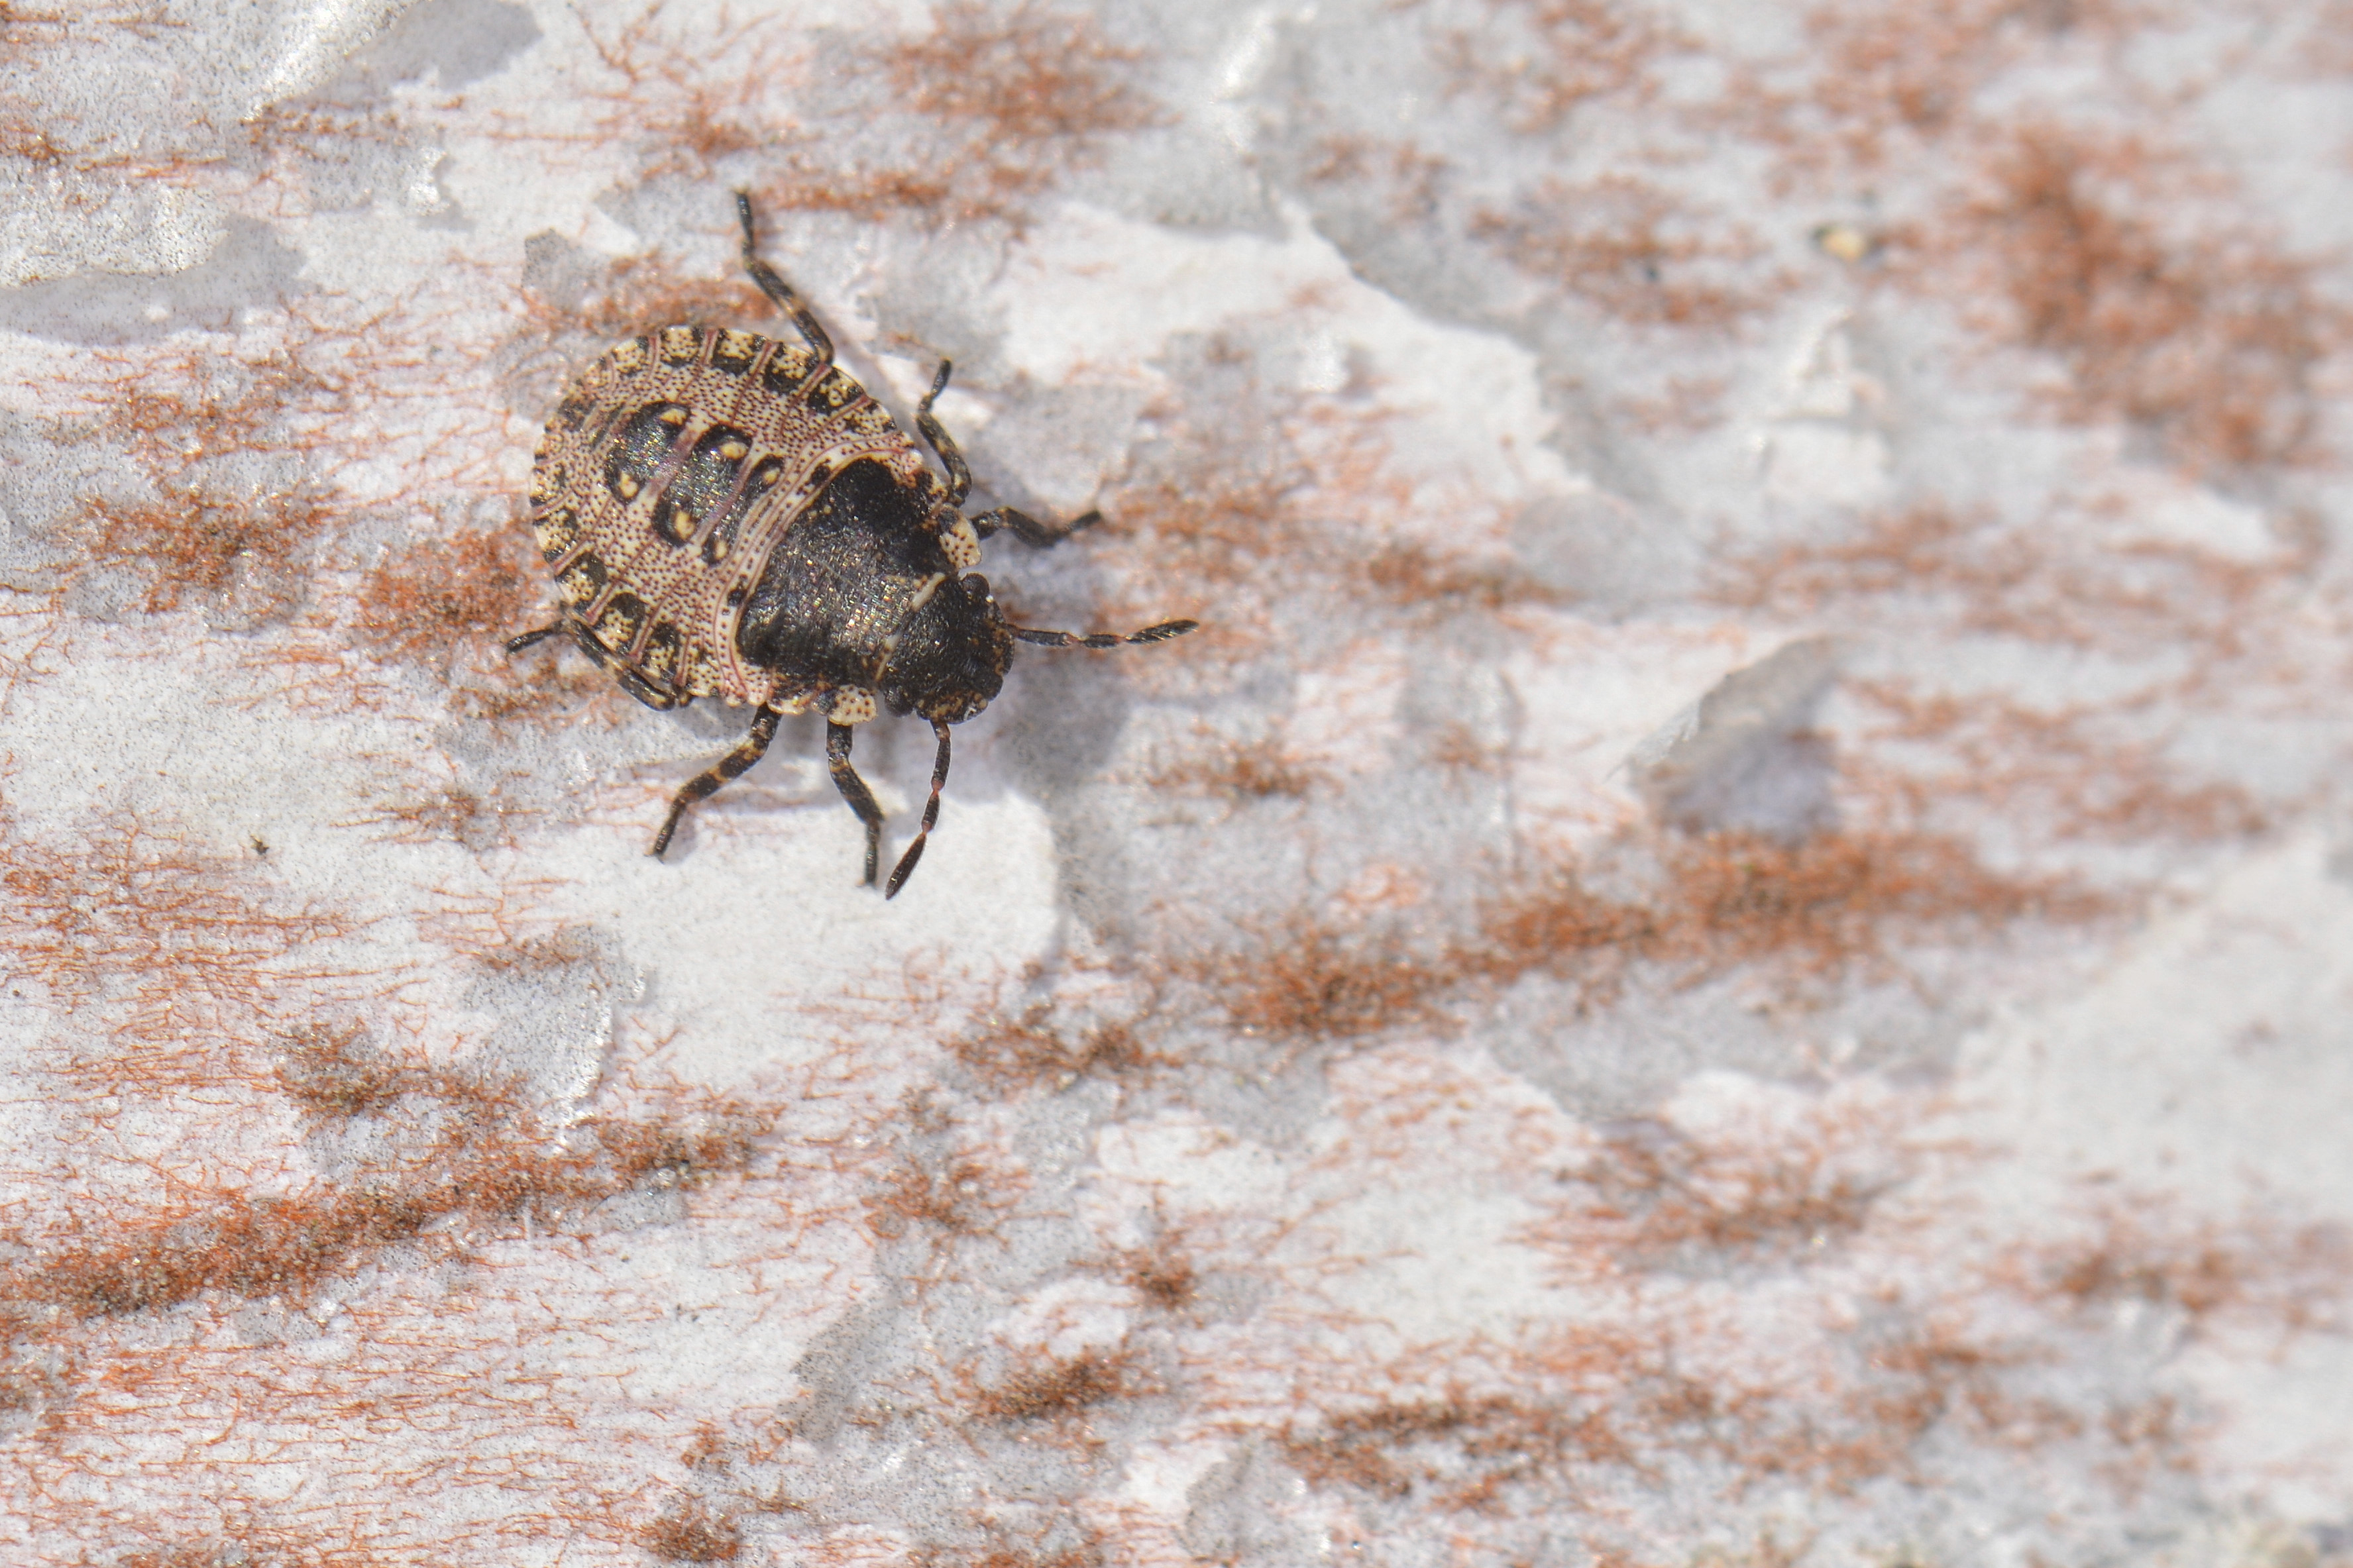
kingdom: Animalia
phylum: Arthropoda
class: Insecta
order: Hemiptera
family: Pentatomidae
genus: Pentatoma
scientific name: Pentatoma rufipes
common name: Forest bug
